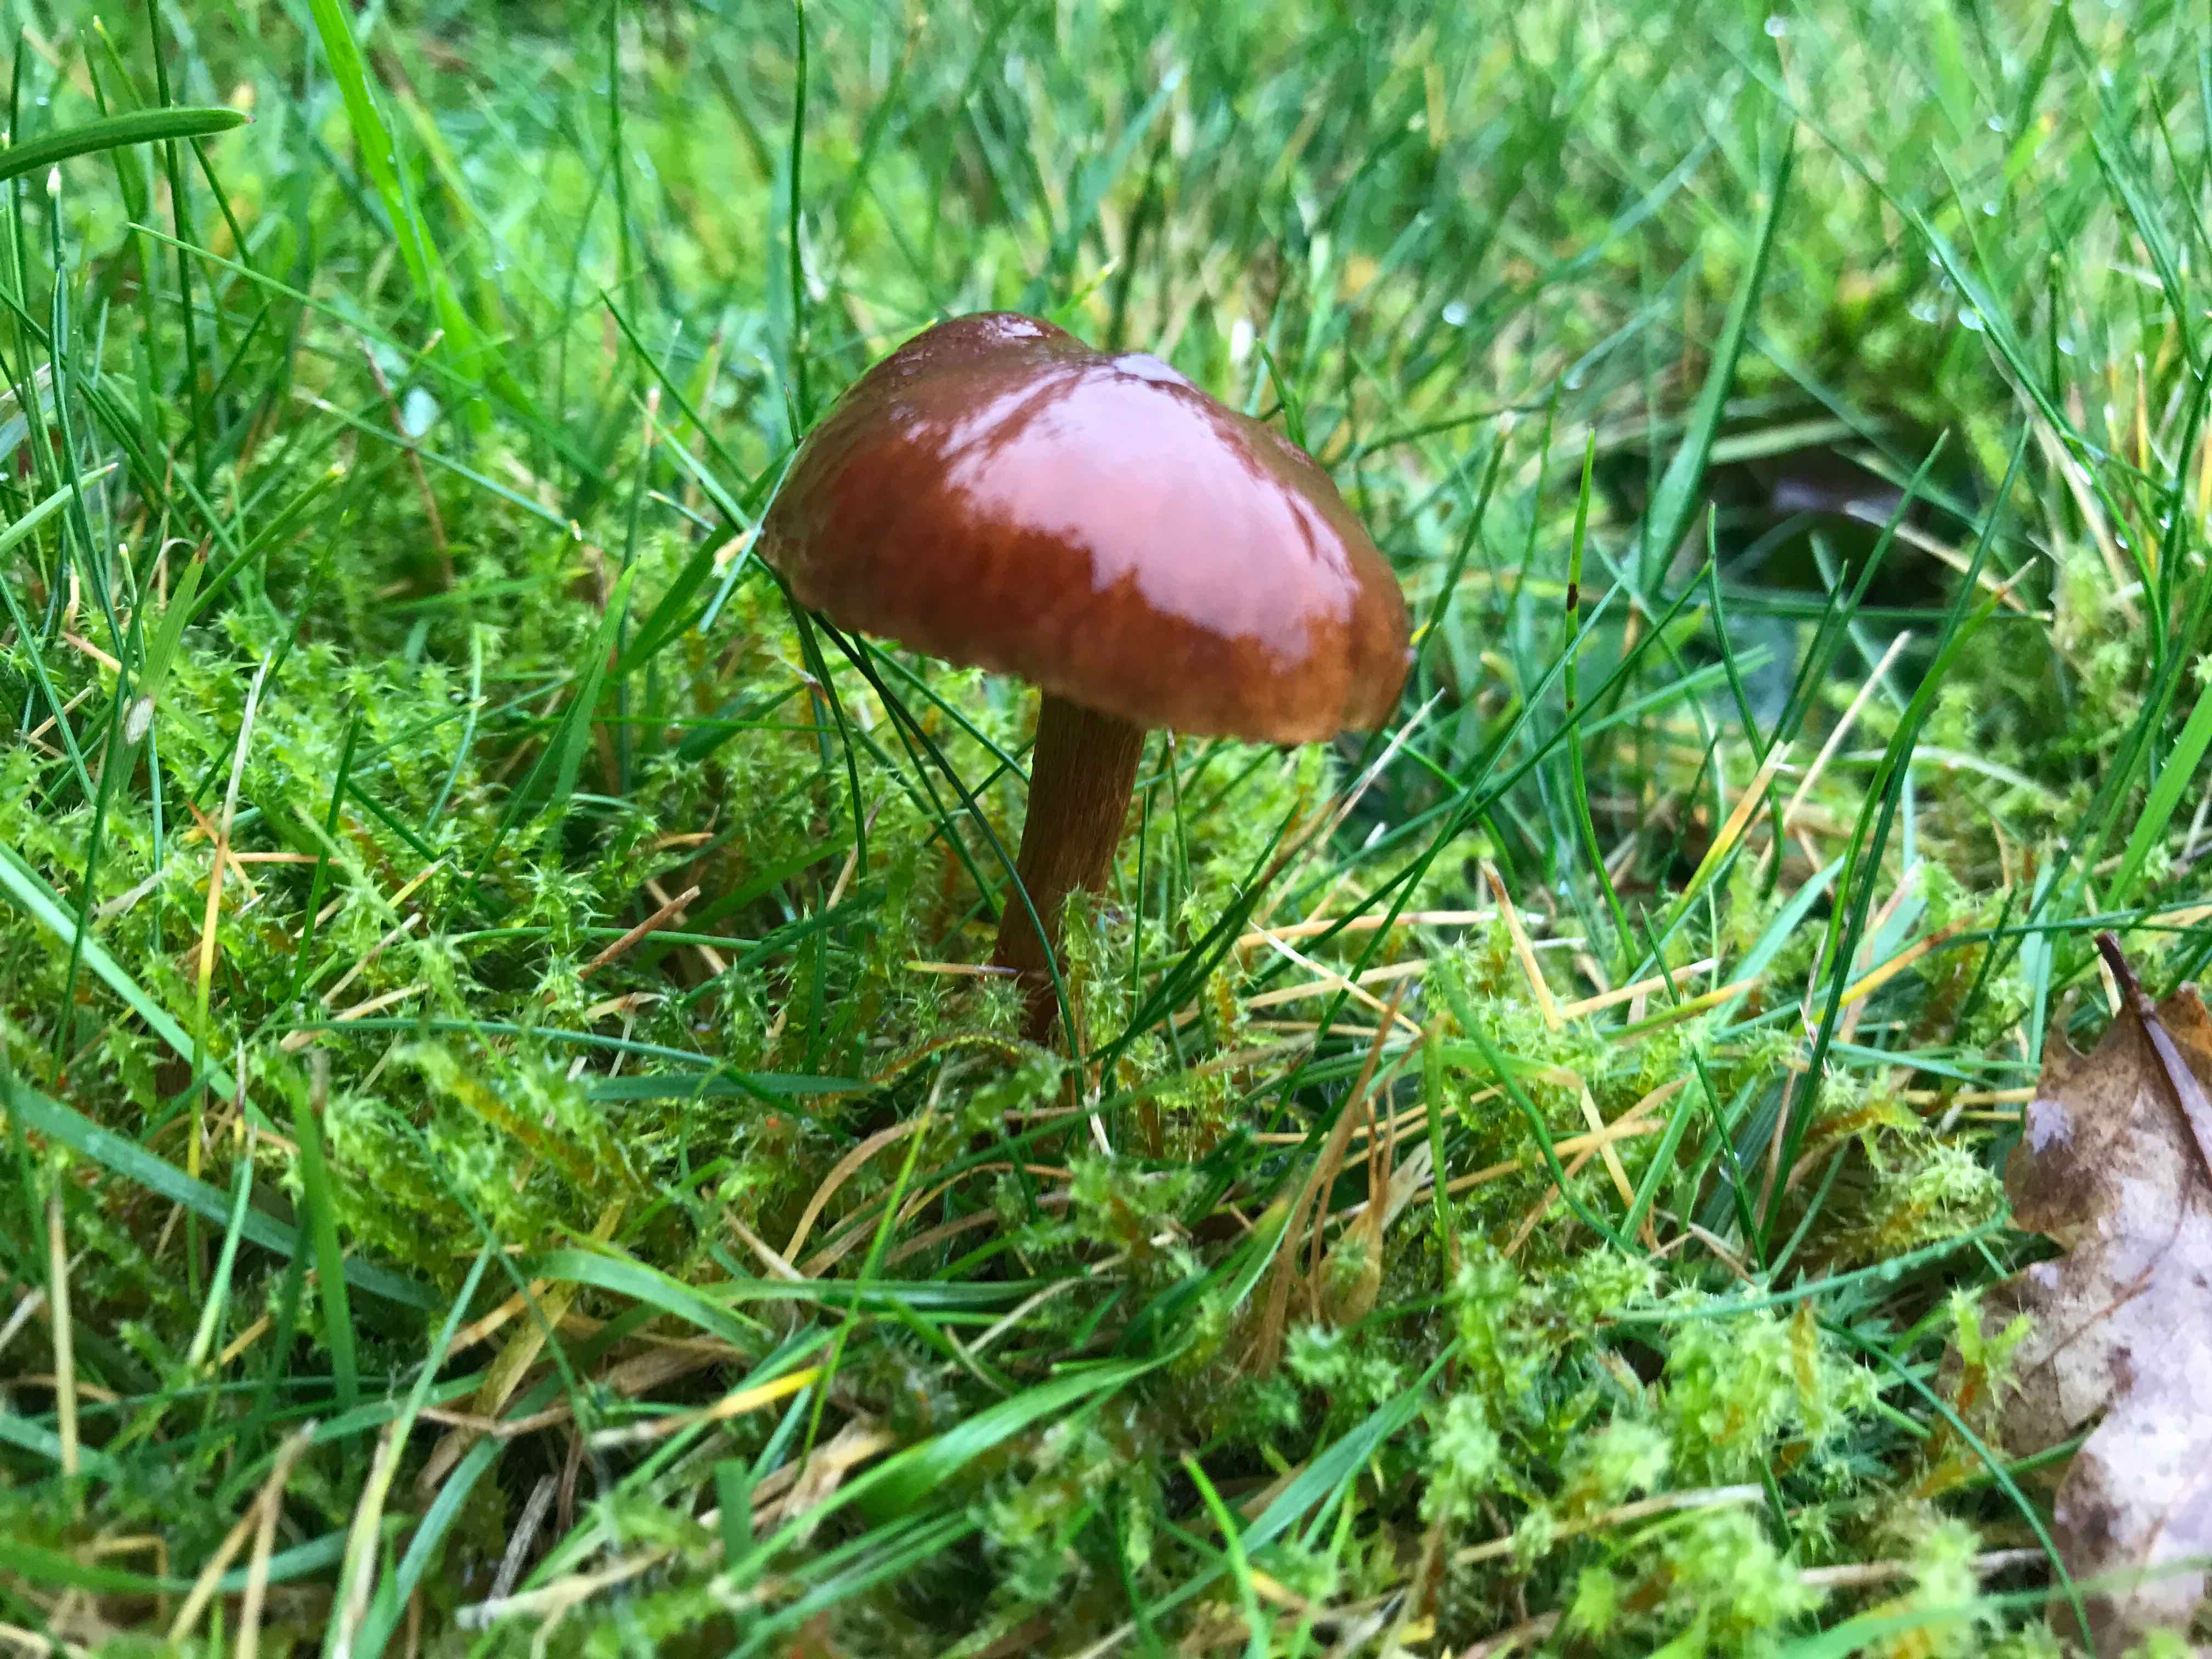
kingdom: Fungi
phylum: Basidiomycota
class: Agaricomycetes
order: Agaricales
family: Cortinariaceae
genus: Cortinarius
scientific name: Cortinarius
